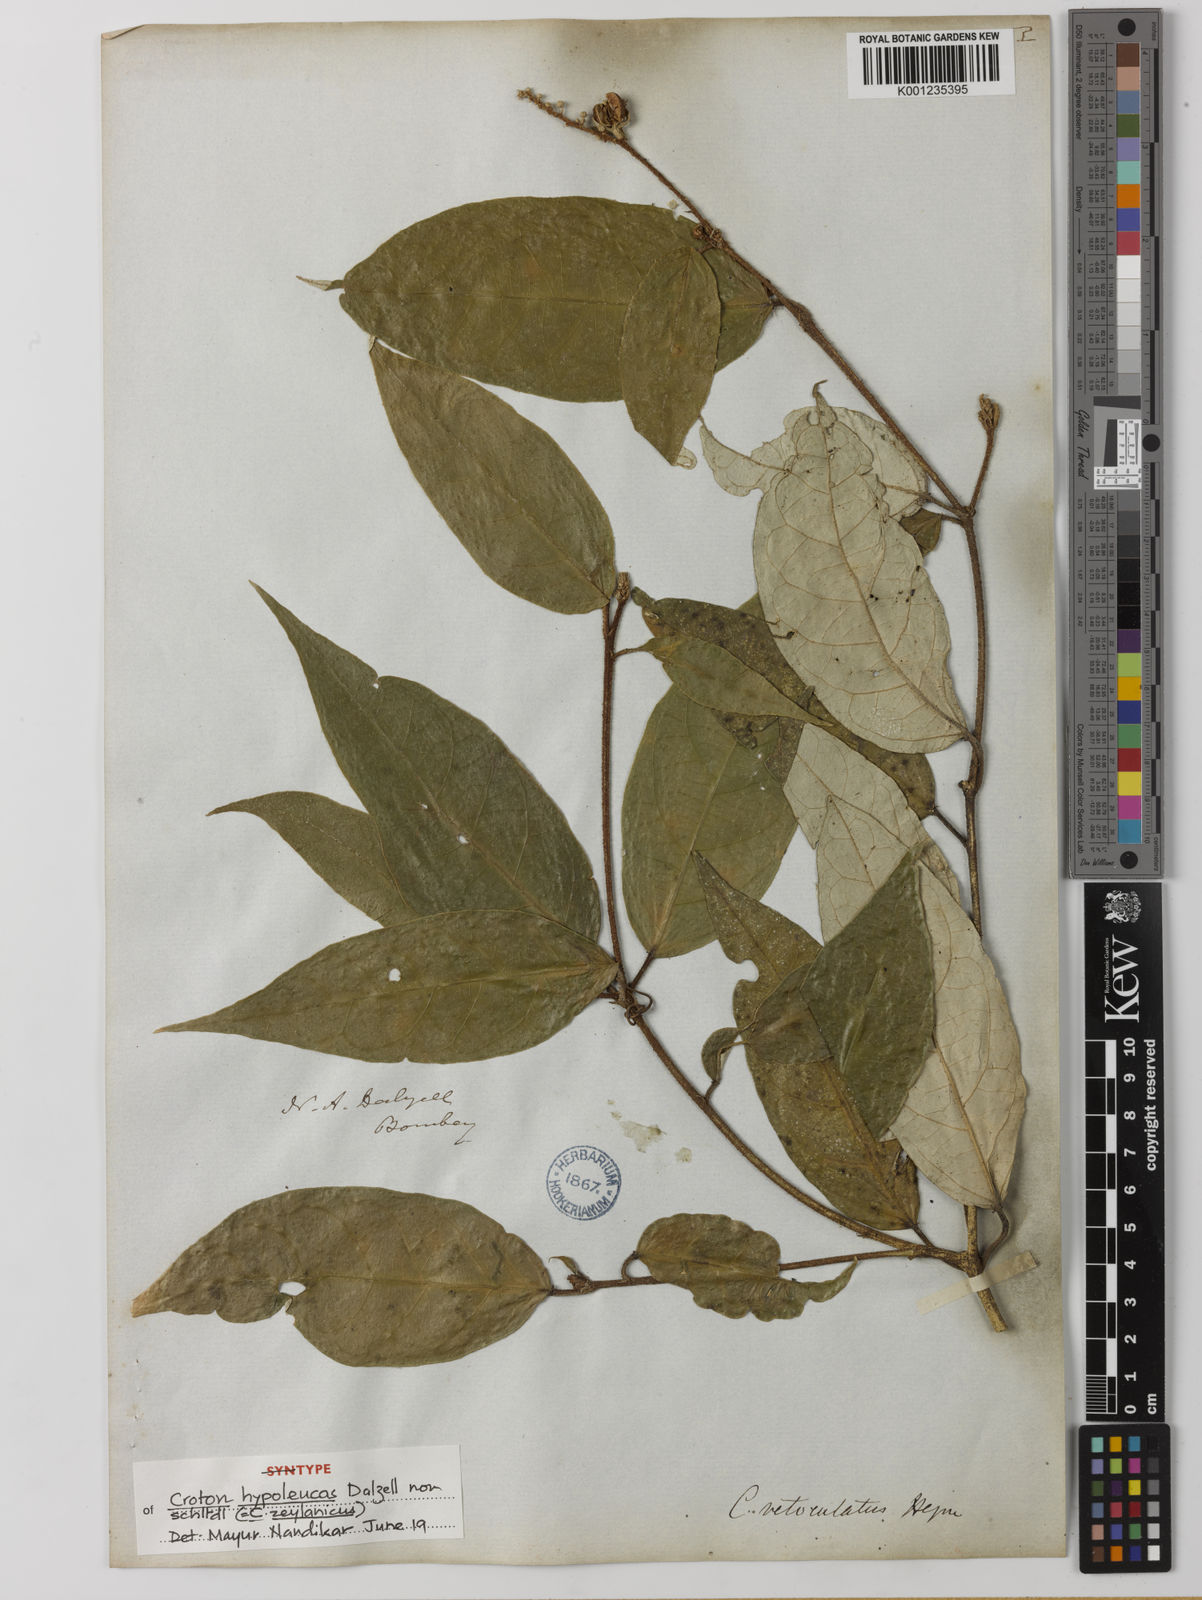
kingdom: Plantae
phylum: Tracheophyta
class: Magnoliopsida
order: Malpighiales
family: Euphorbiaceae
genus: Croton
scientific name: Croton
